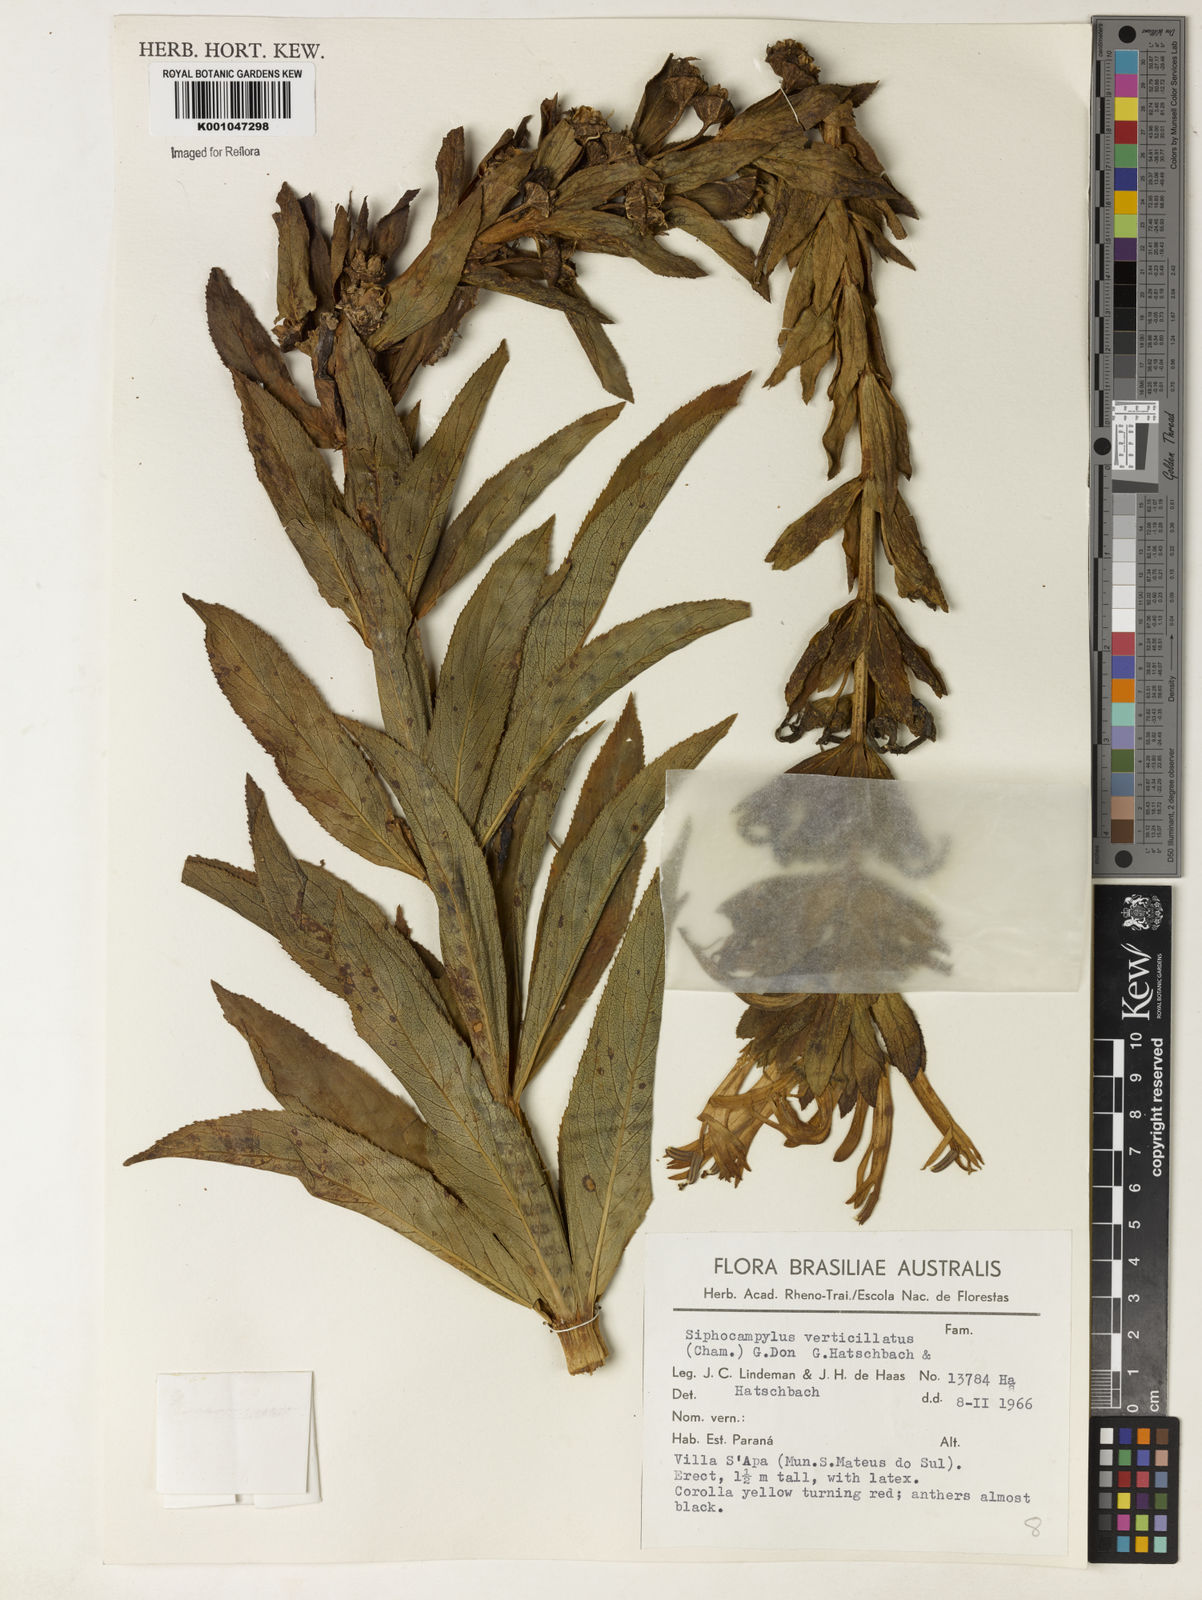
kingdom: Plantae
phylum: Tracheophyta
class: Magnoliopsida
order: Asterales
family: Campanulaceae
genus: Siphocampylus
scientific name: Siphocampylus verticillatus
